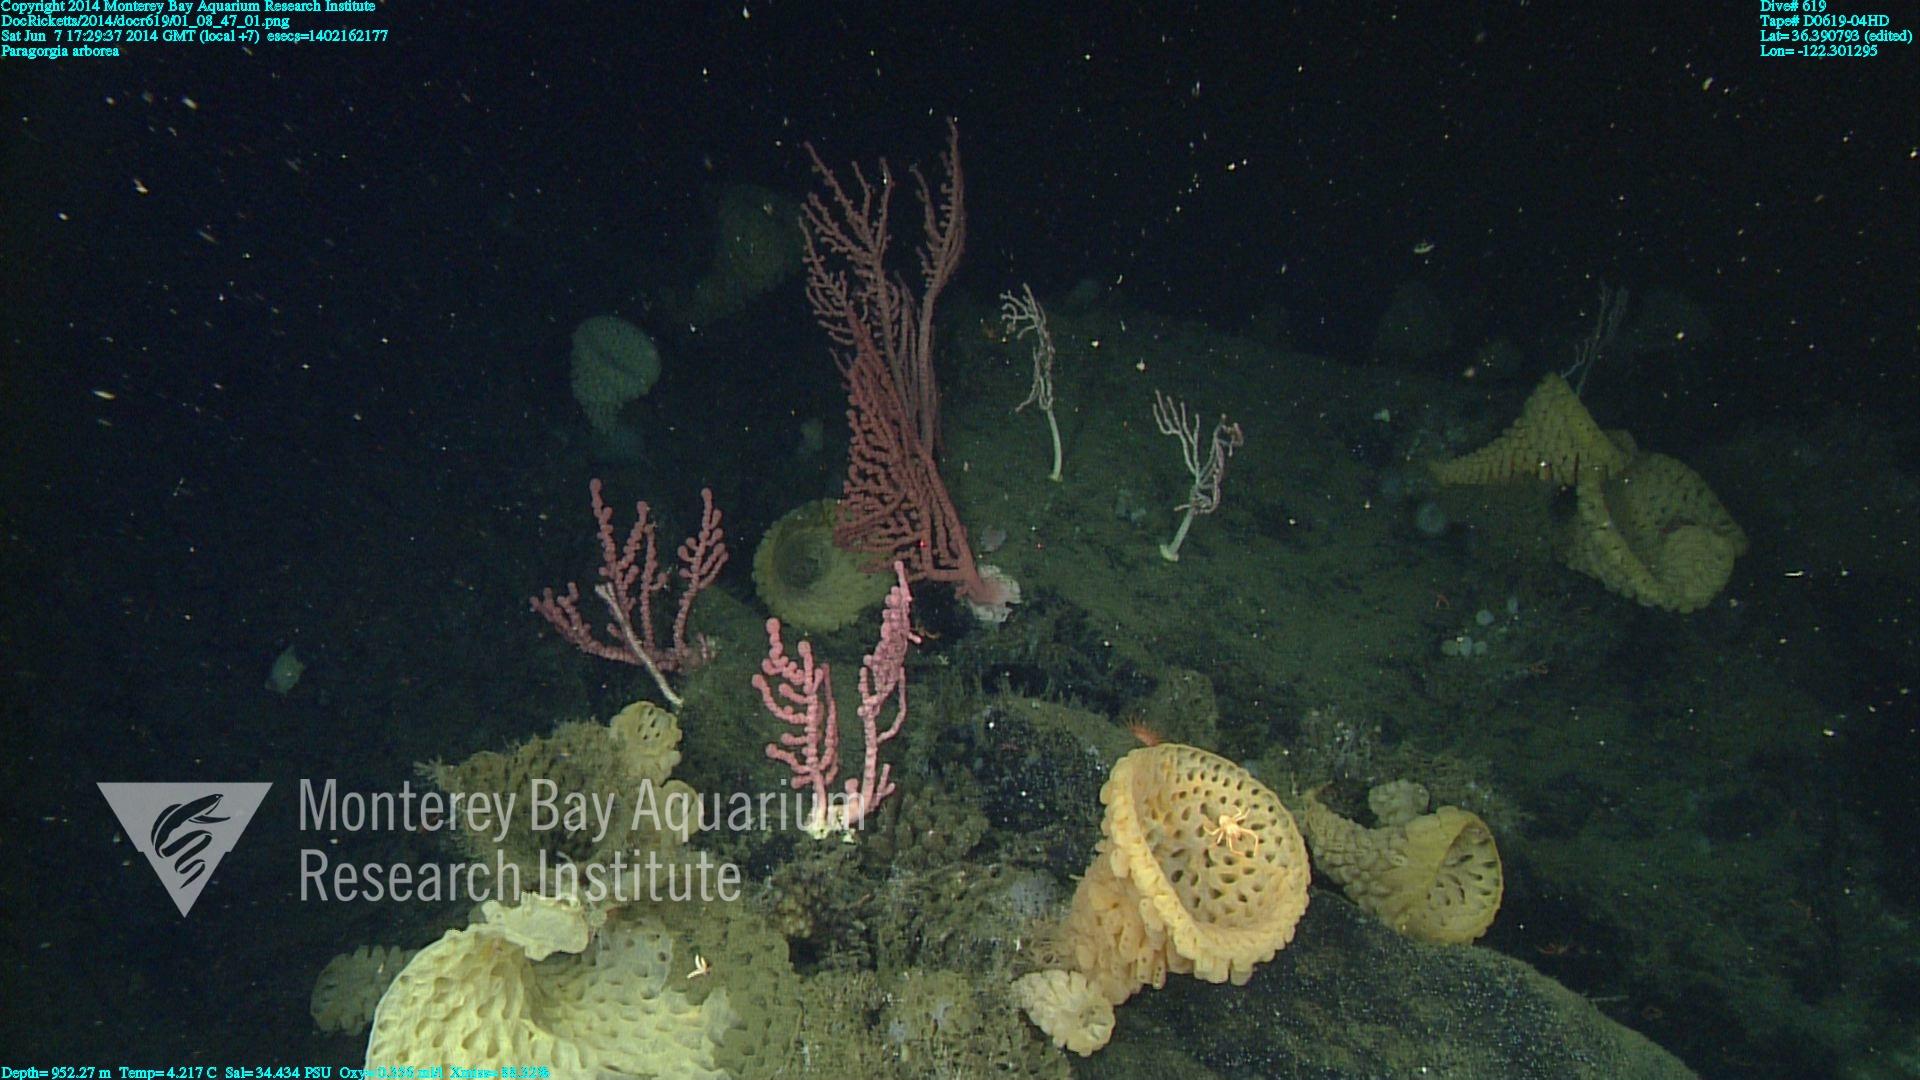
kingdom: Animalia
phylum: Cnidaria
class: Anthozoa
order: Scleralcyonacea
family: Coralliidae
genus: Paragorgia
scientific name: Paragorgia arborea
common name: Bubble gum coral
